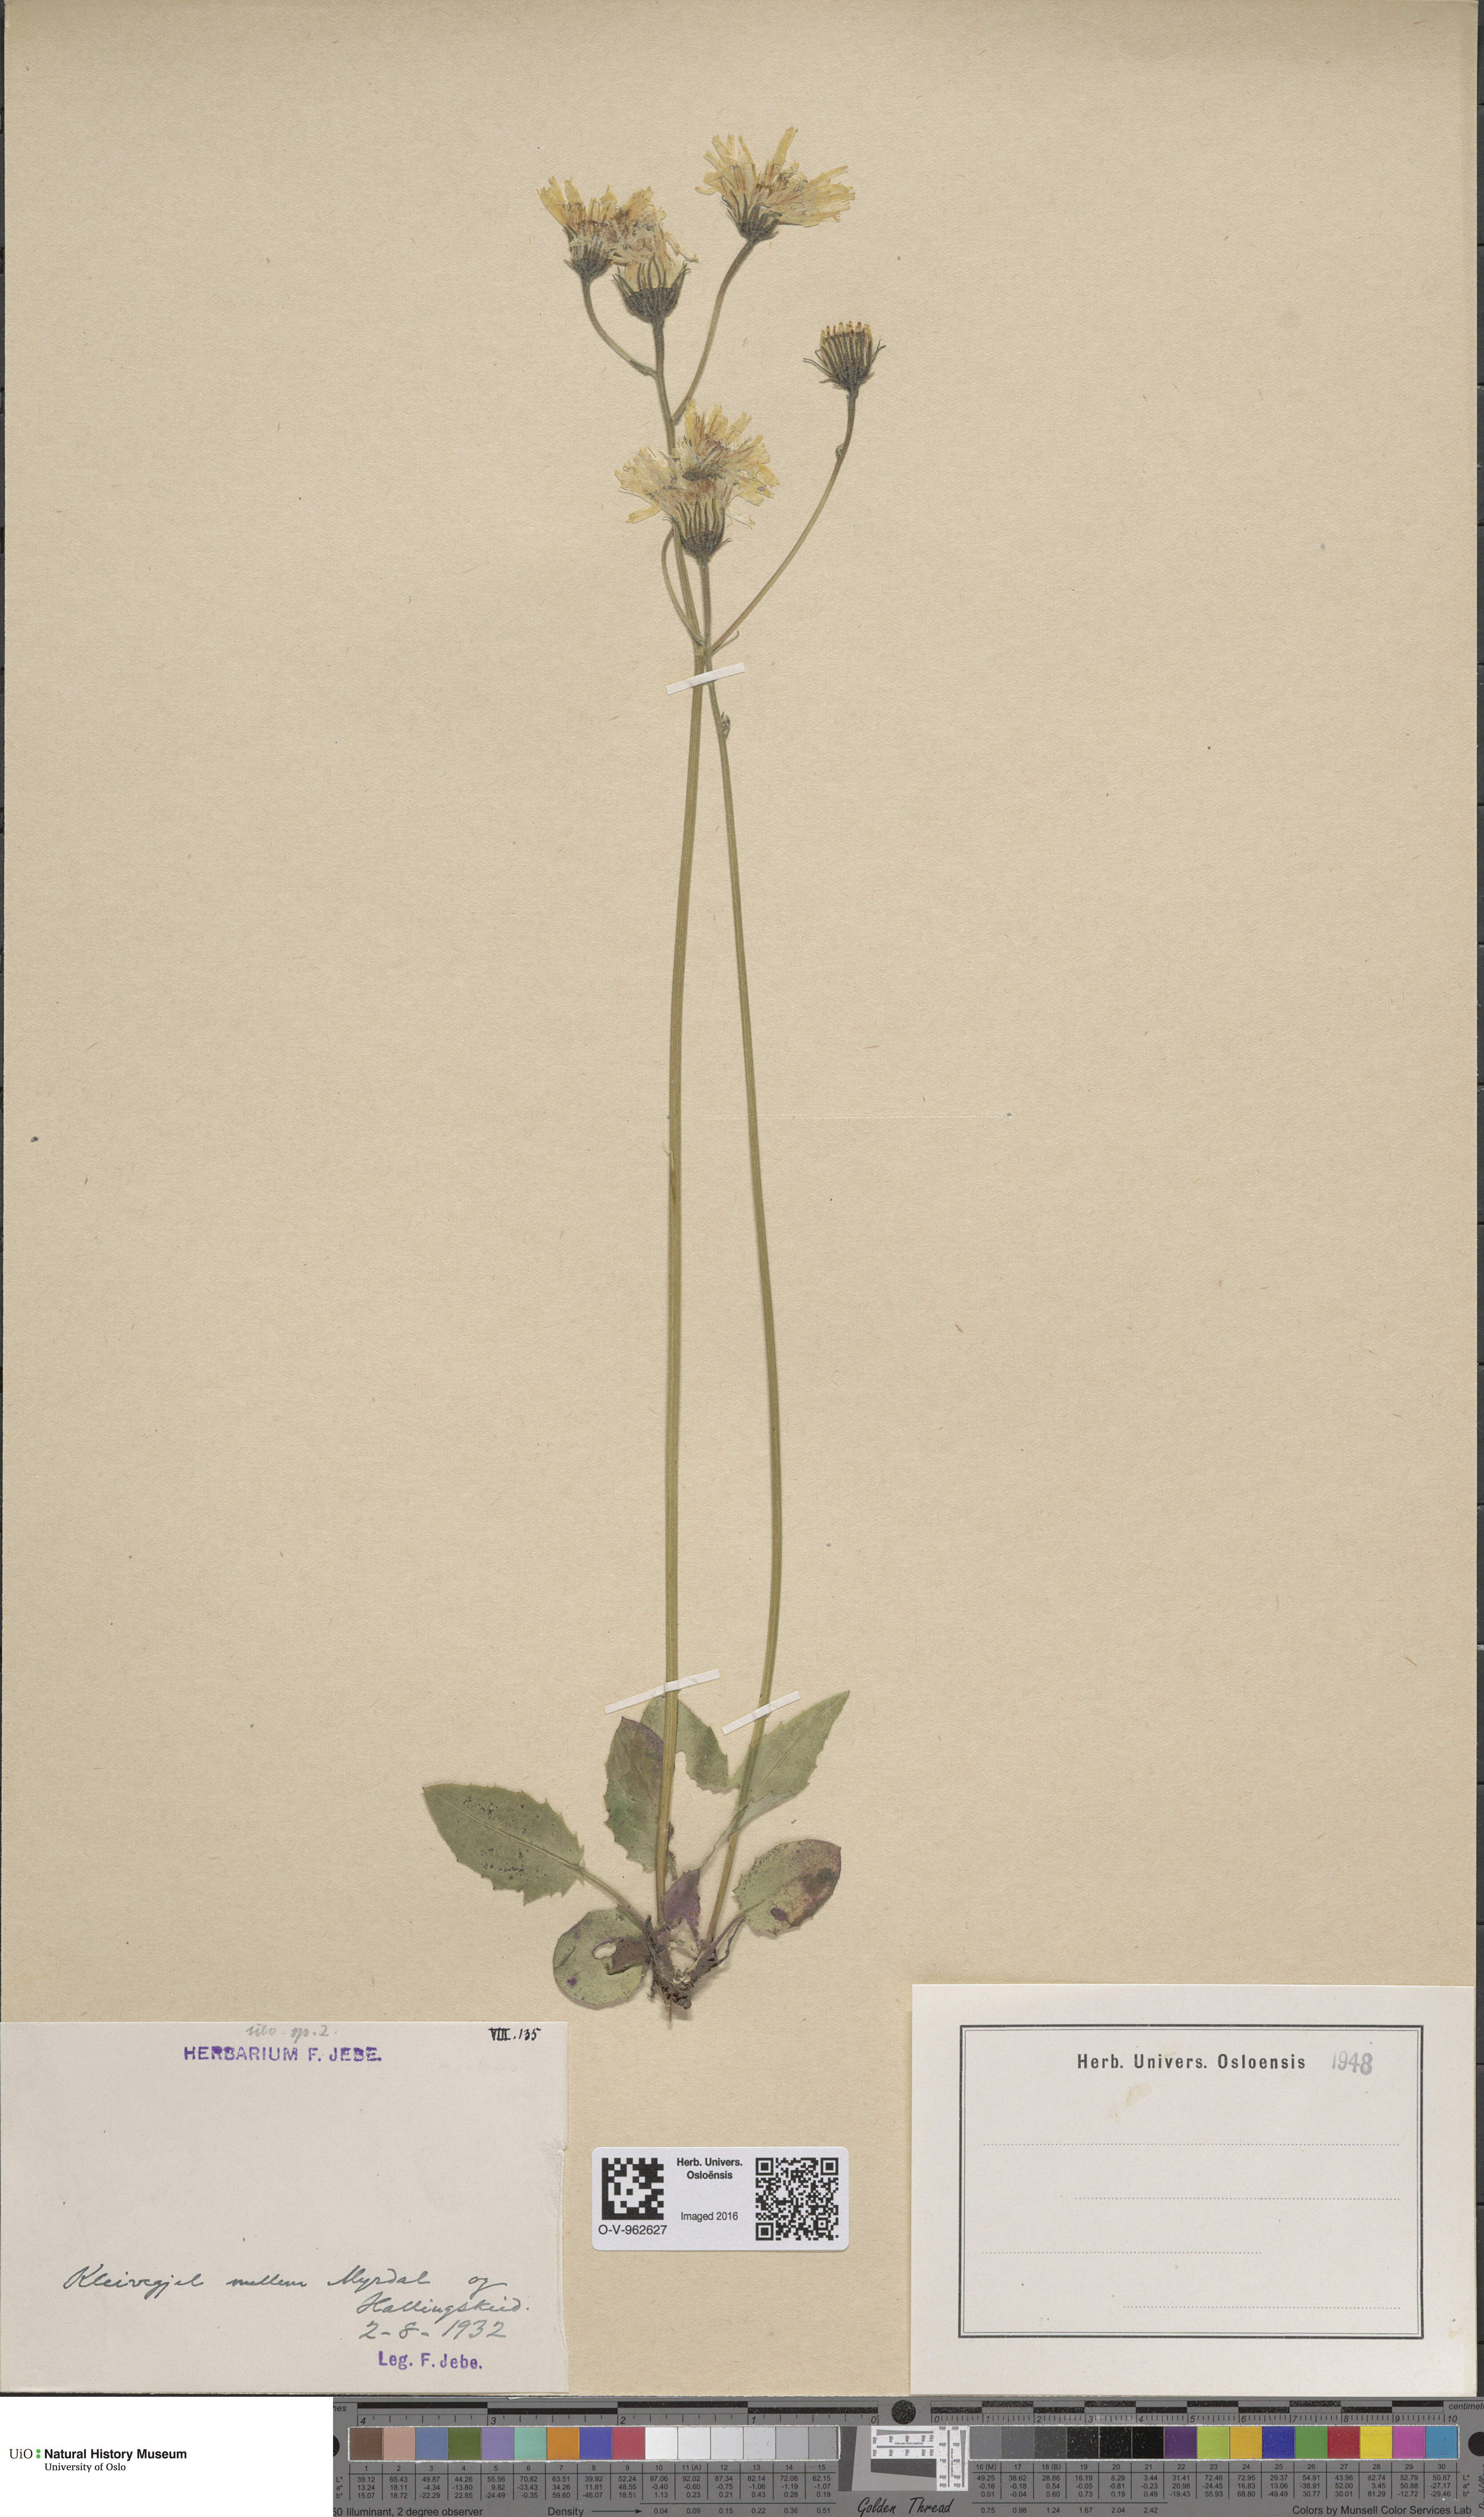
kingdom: Plantae
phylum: Tracheophyta
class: Magnoliopsida
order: Asterales
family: Asteraceae
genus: Hieracium
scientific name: Hieracium
